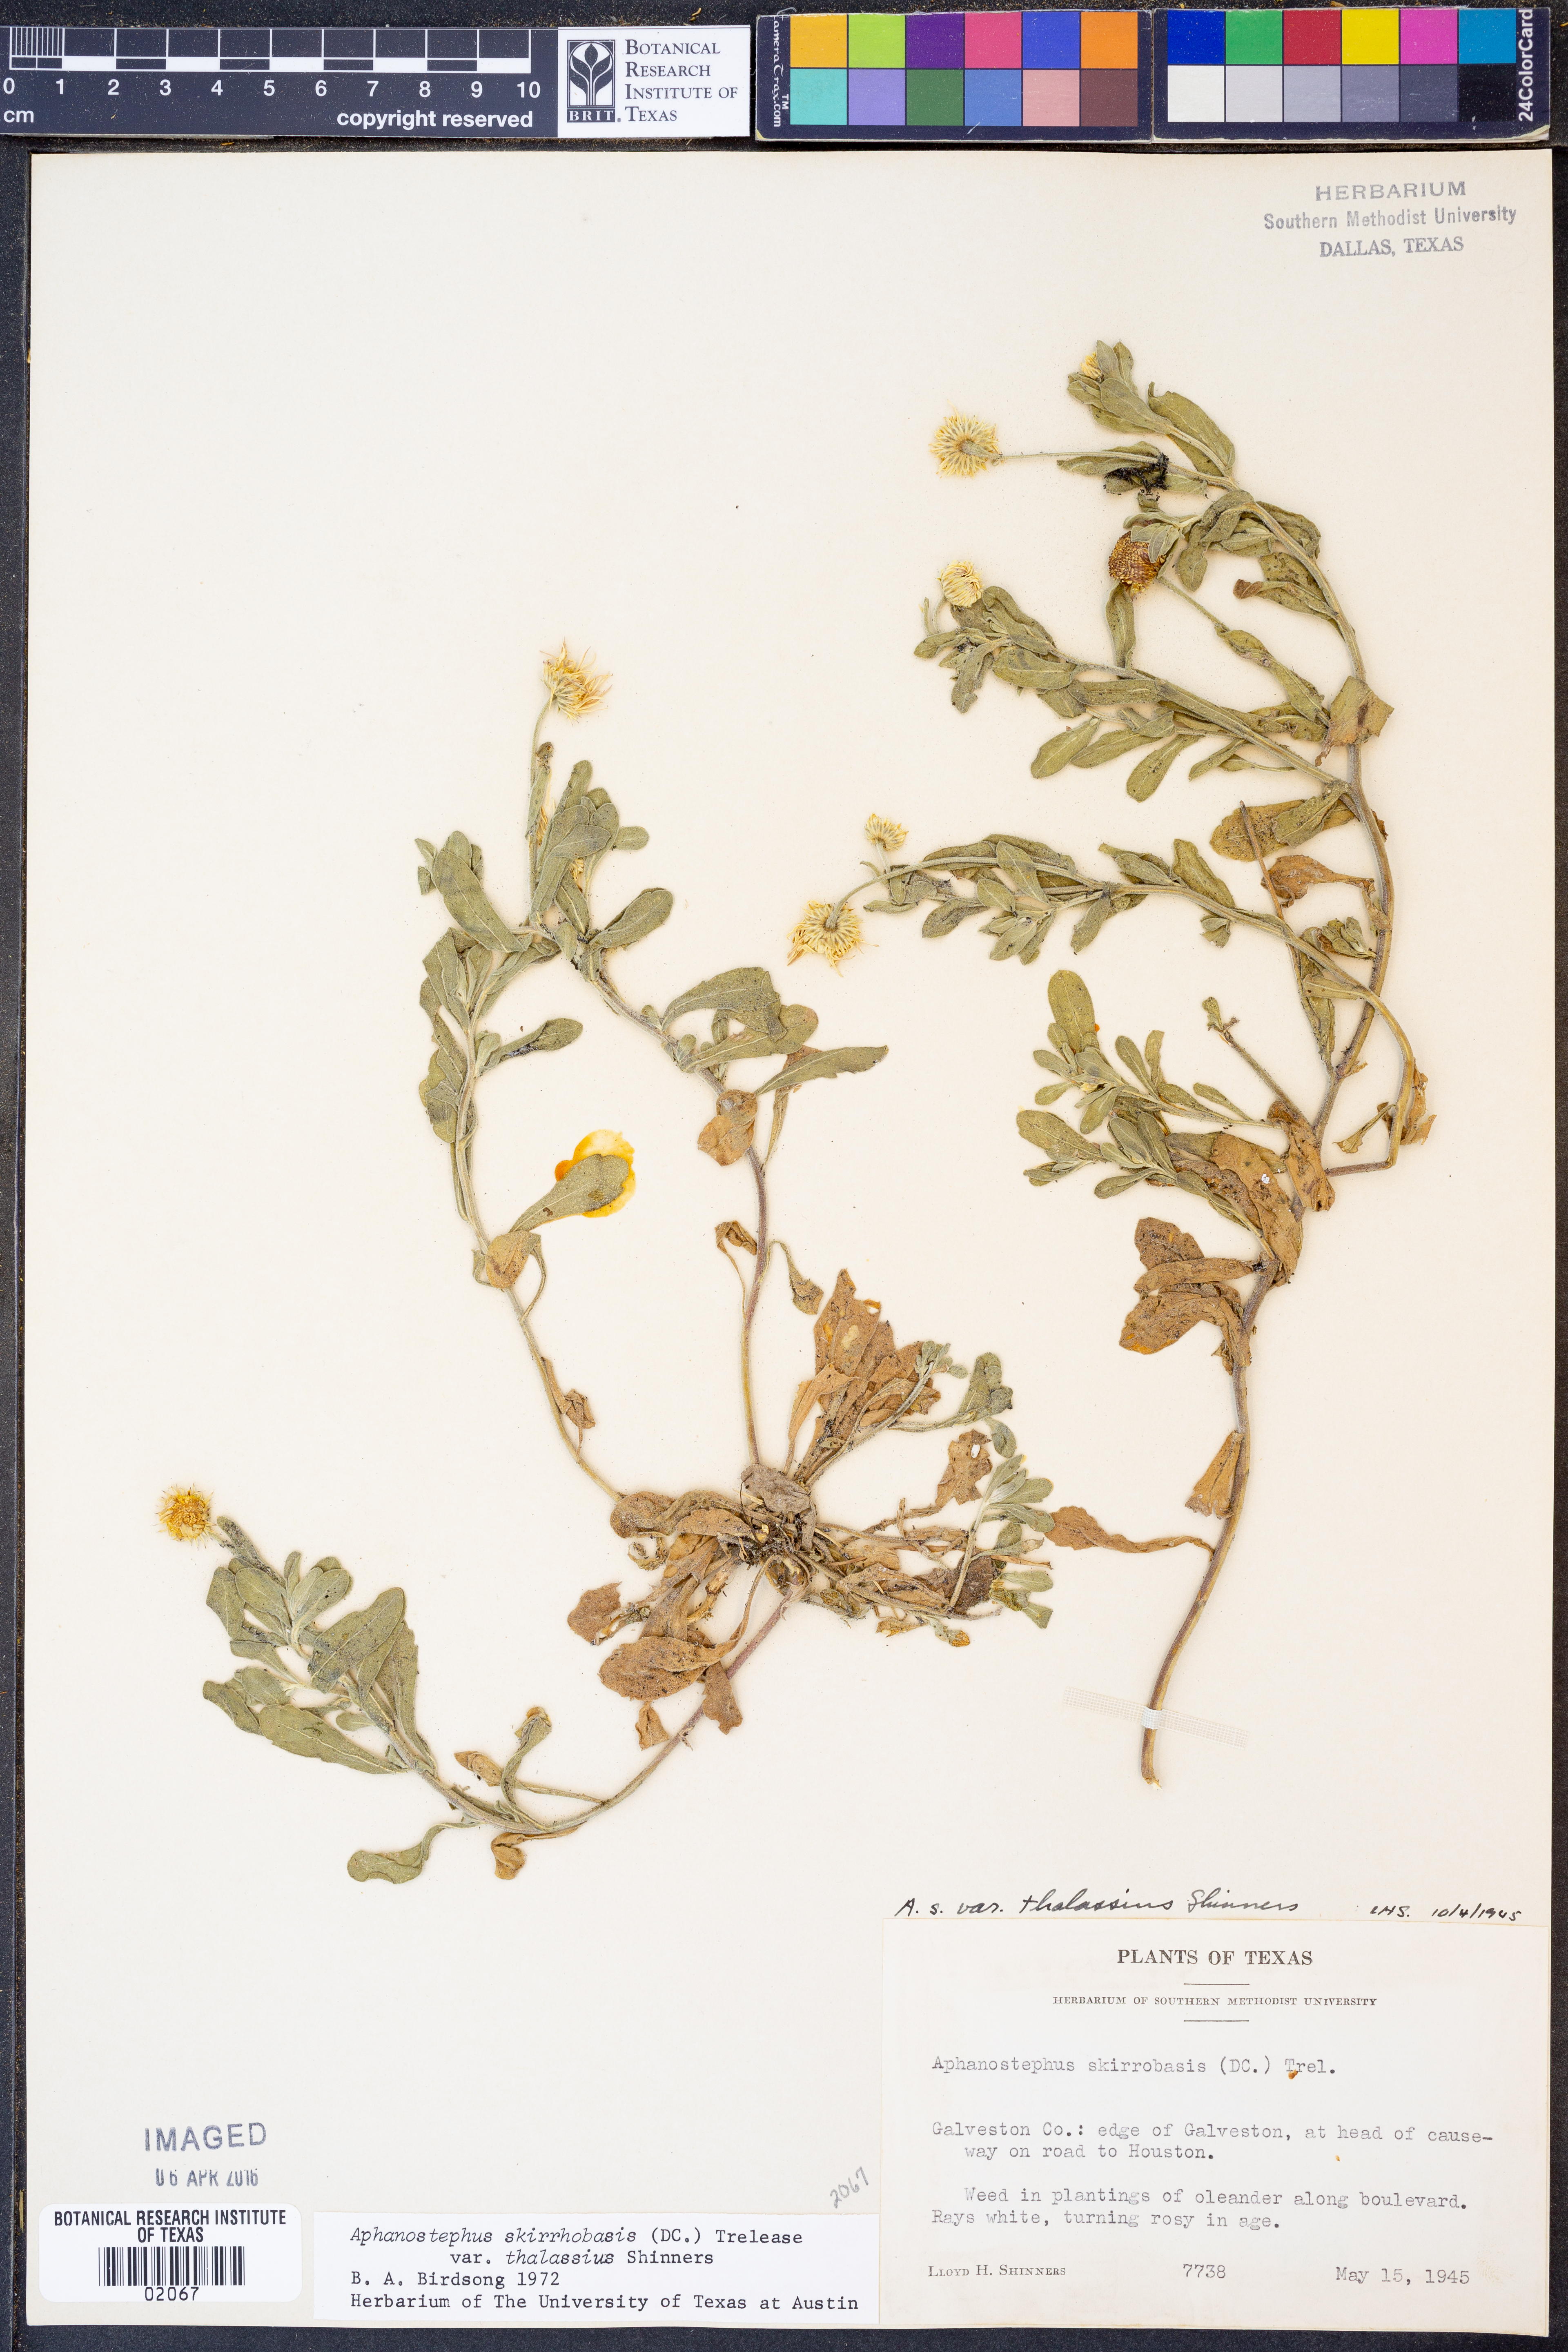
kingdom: Plantae
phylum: Tracheophyta
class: Magnoliopsida
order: Asterales
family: Asteraceae
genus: Aphanostephus
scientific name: Aphanostephus skirrhobasis
